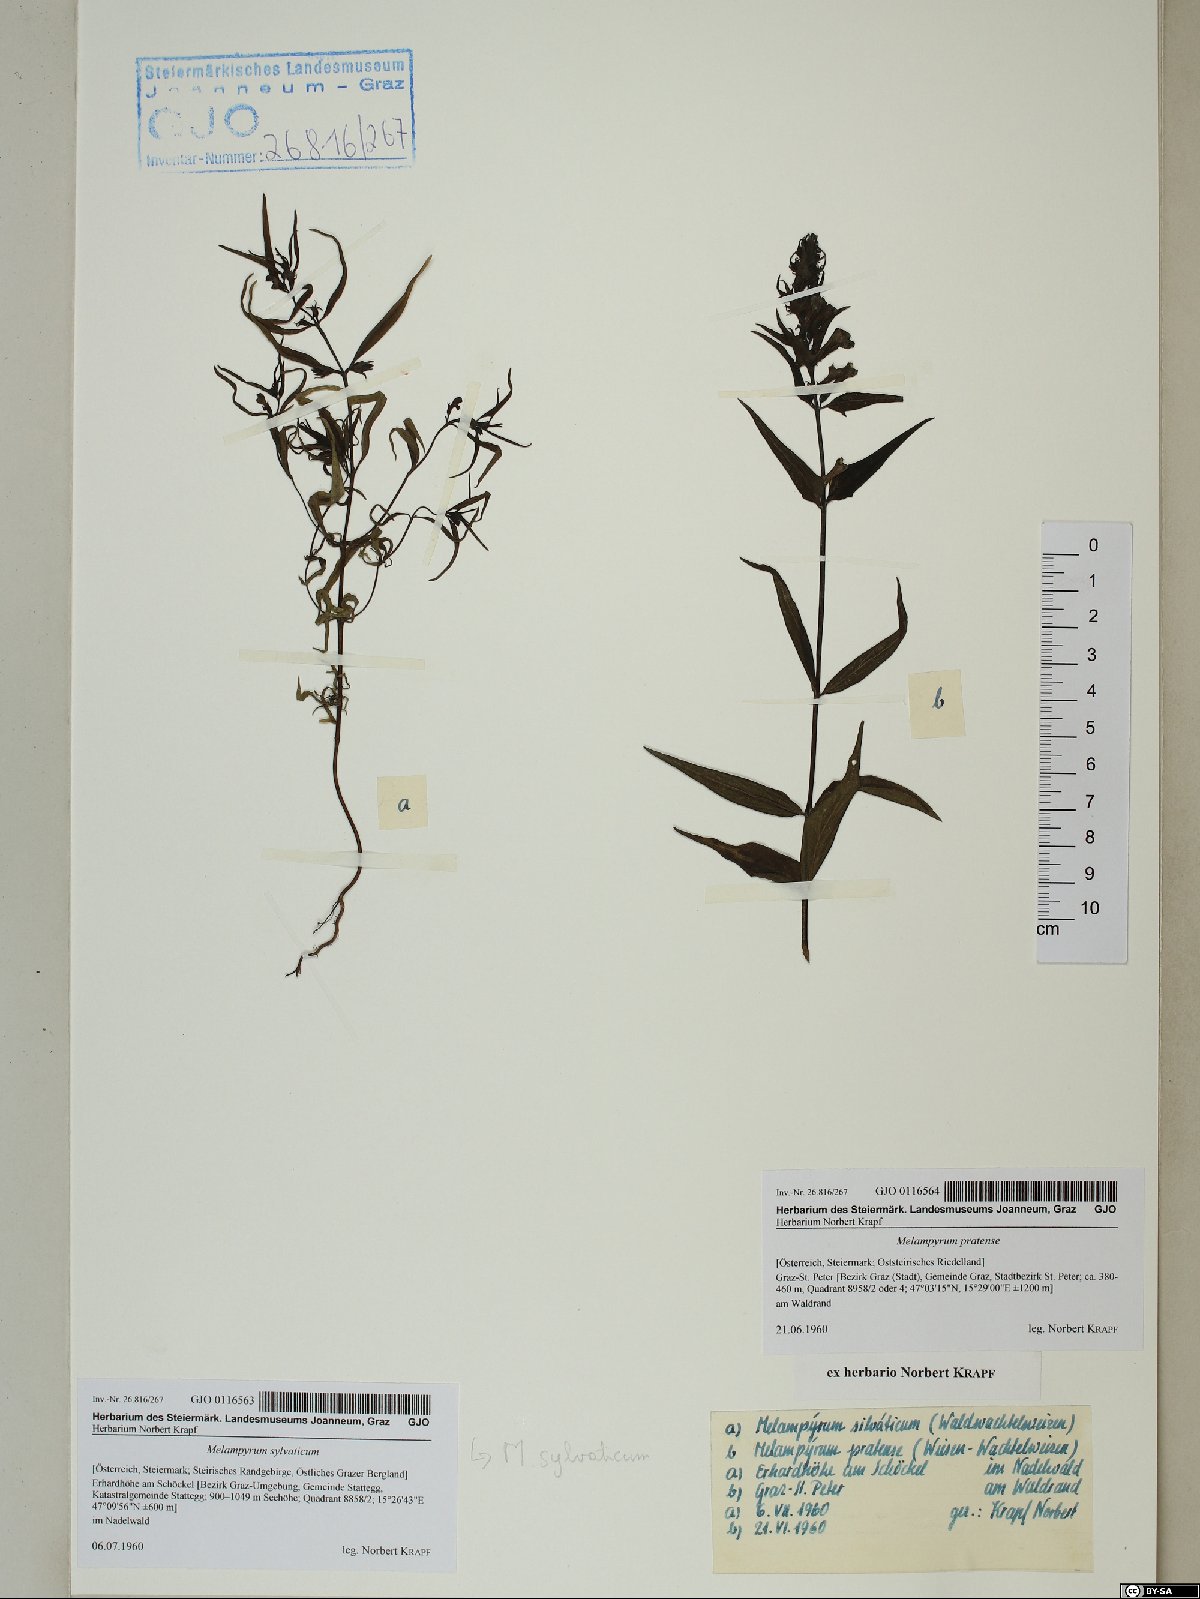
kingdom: Plantae
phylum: Tracheophyta
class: Magnoliopsida
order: Lamiales
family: Orobanchaceae
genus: Melampyrum
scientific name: Melampyrum sylvaticum
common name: Small cow-wheat
